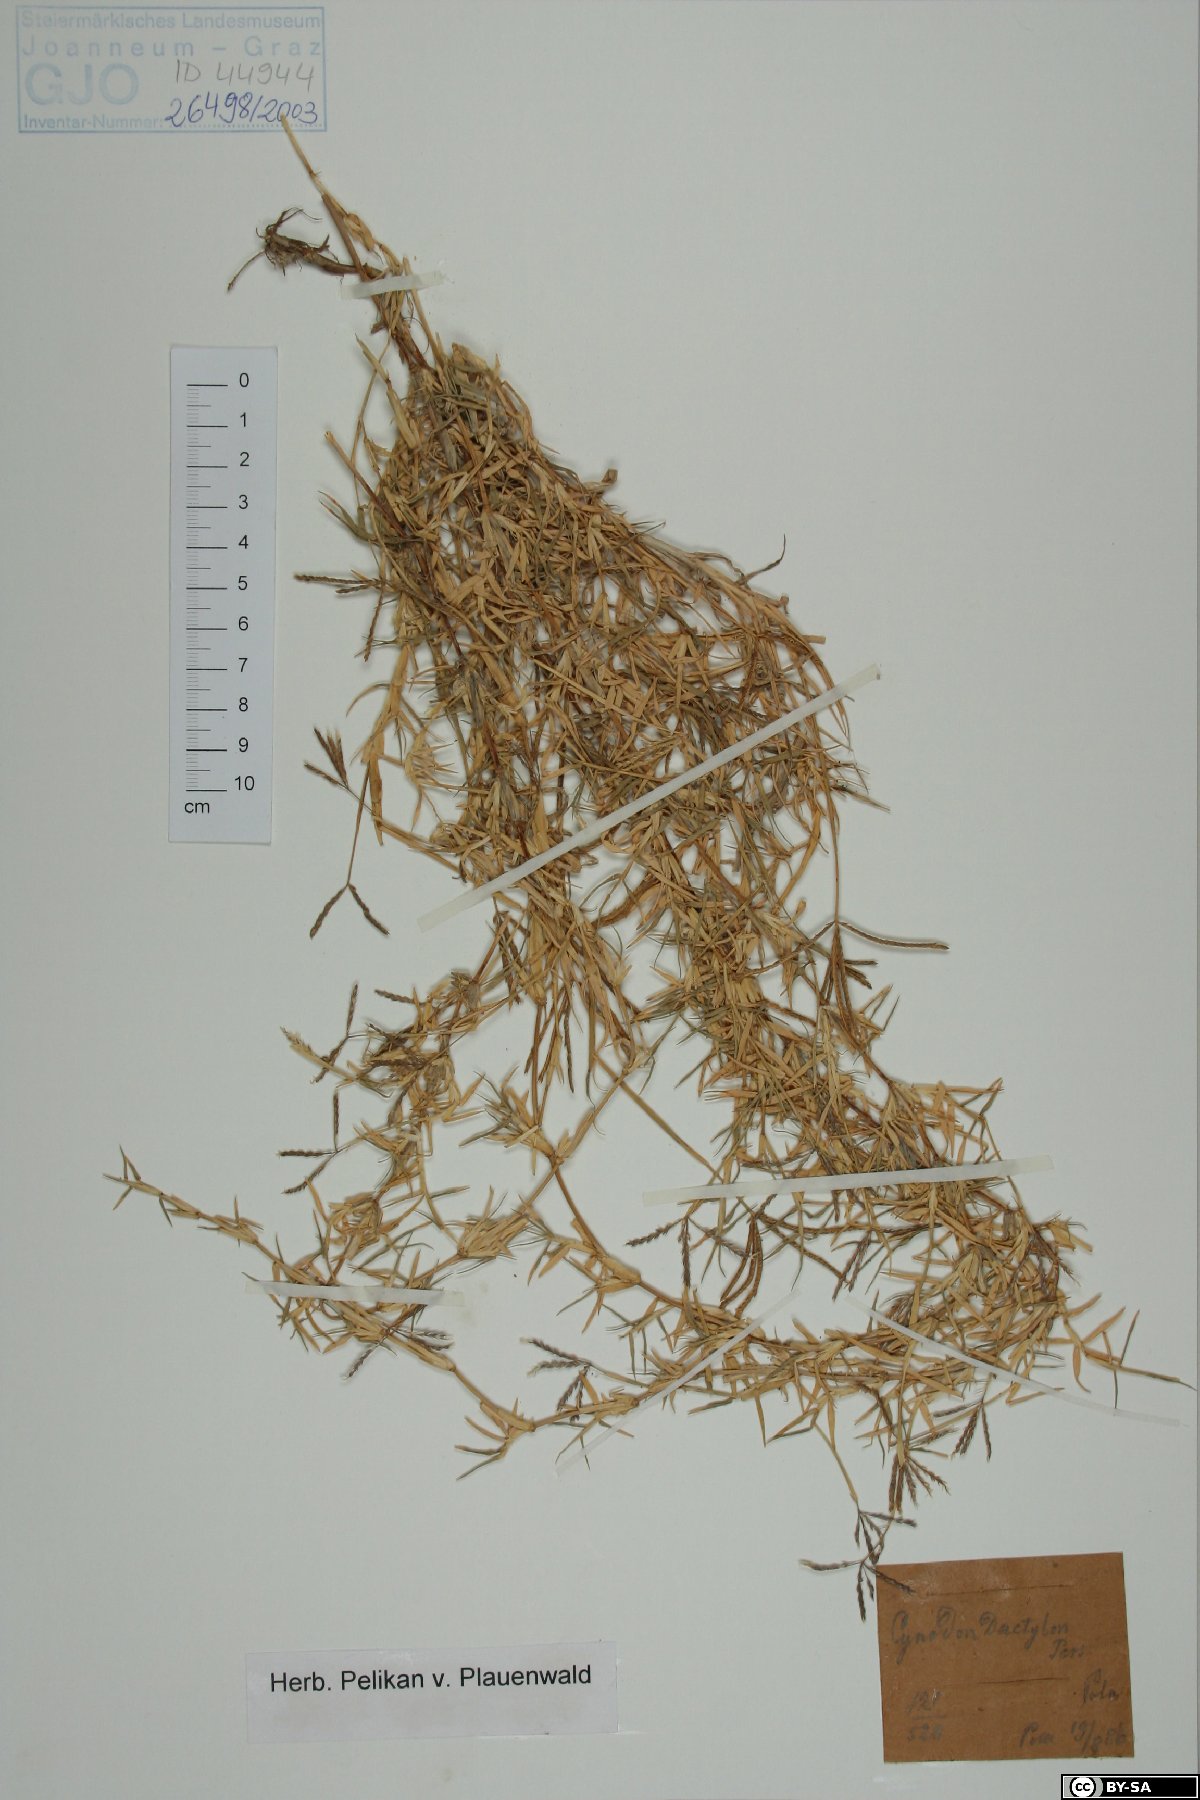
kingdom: Plantae
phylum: Tracheophyta
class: Liliopsida
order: Poales
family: Poaceae
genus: Cynodon
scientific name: Cynodon dactylon
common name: Bermuda grass
